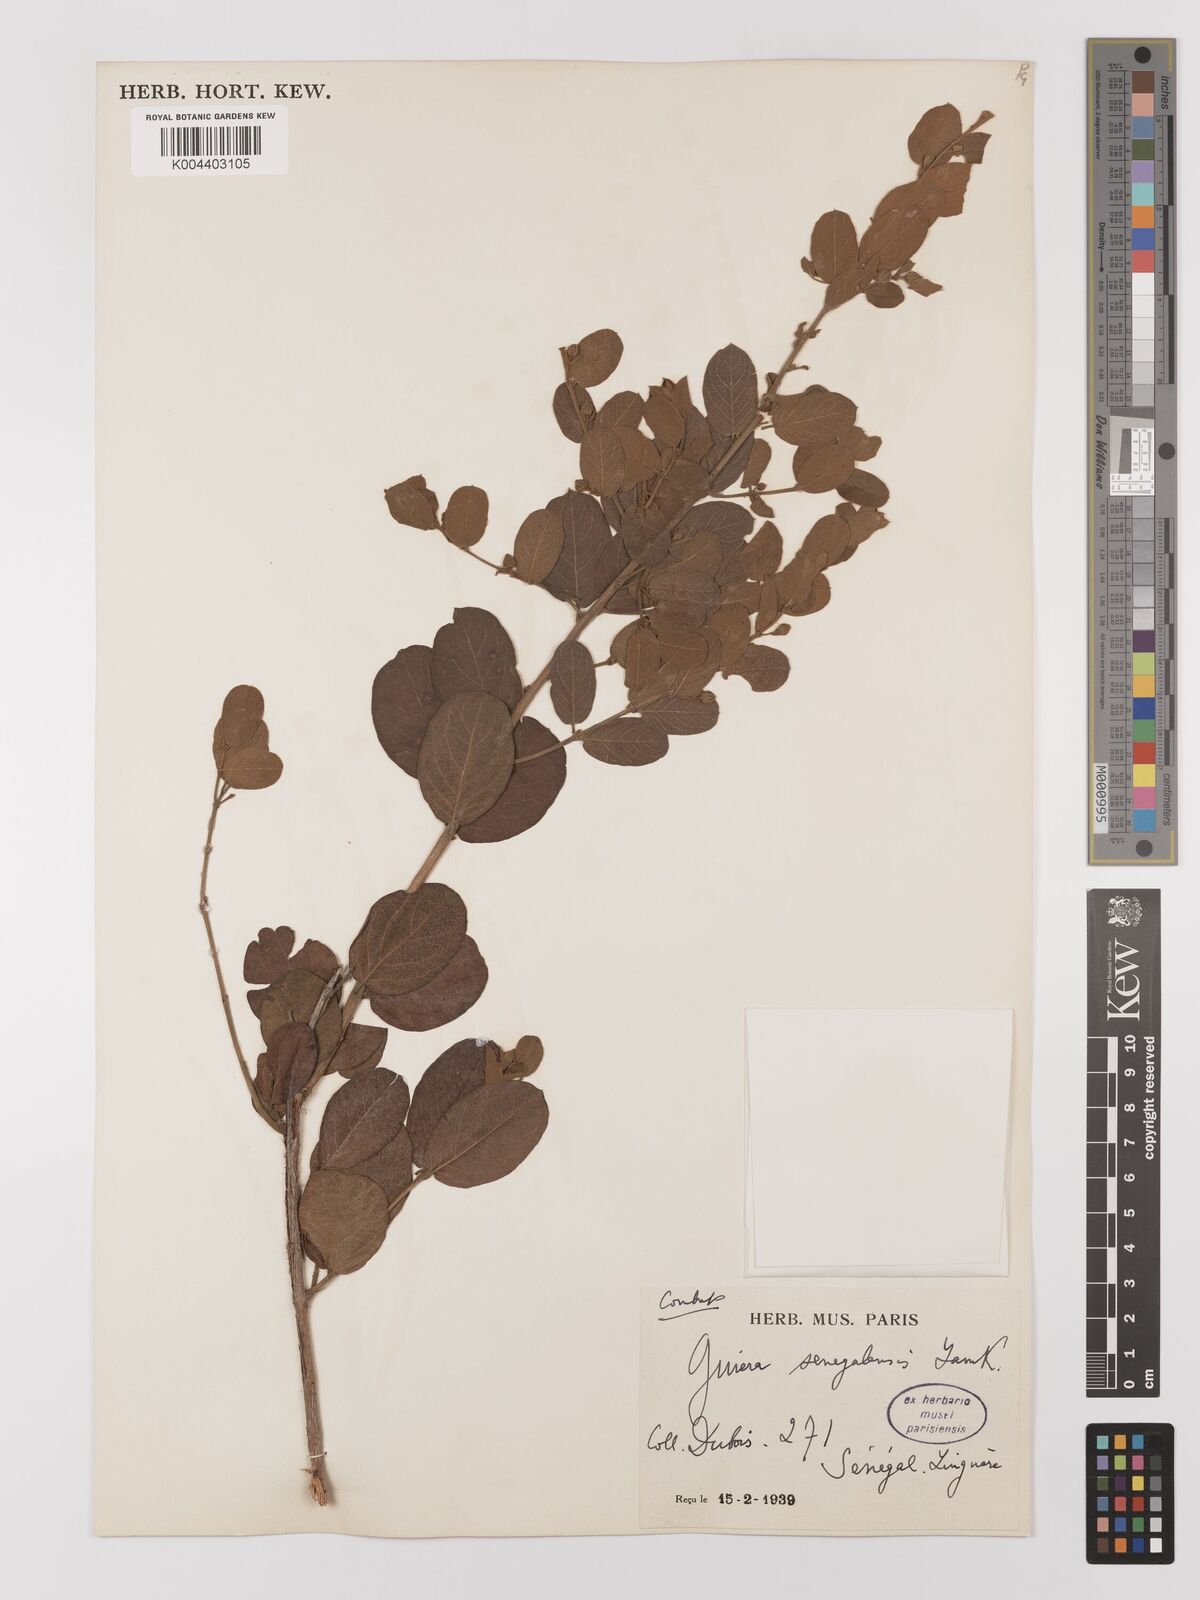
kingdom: Plantae
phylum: Tracheophyta
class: Magnoliopsida
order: Myrtales
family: Combretaceae
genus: Guiera
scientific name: Guiera senegalensis
